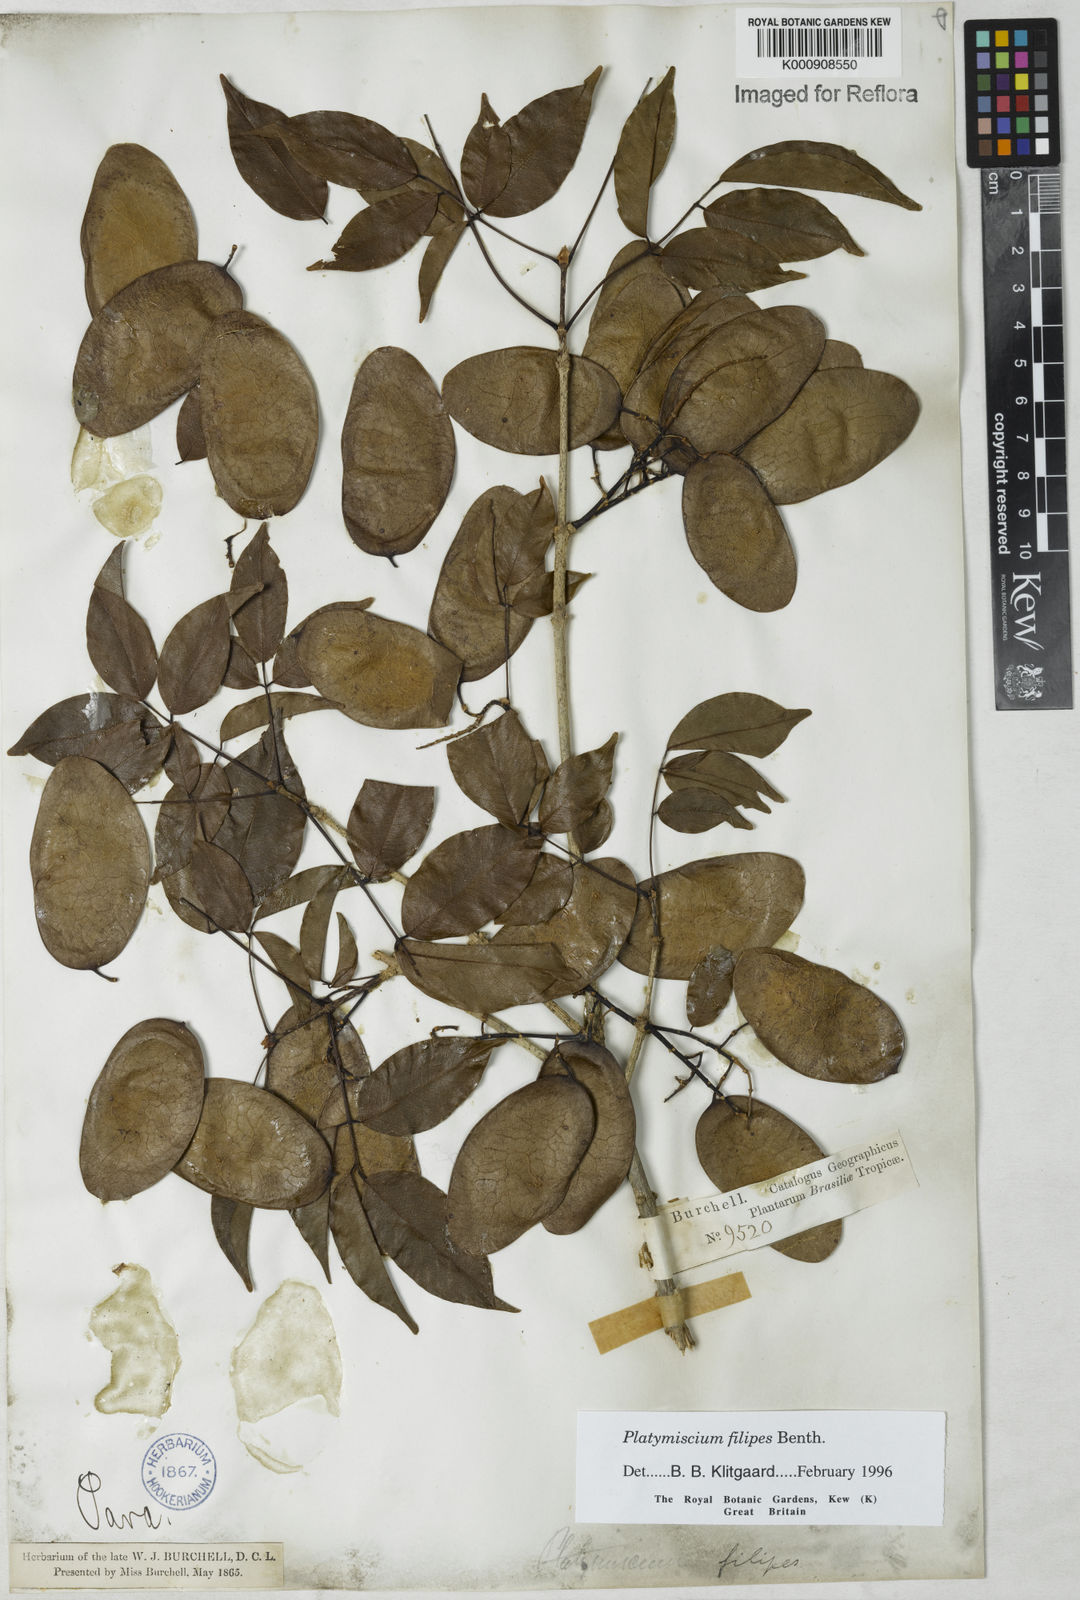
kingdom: Plantae
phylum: Tracheophyta
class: Magnoliopsida
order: Fabales
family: Fabaceae
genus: Platymiscium
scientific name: Platymiscium filipes
